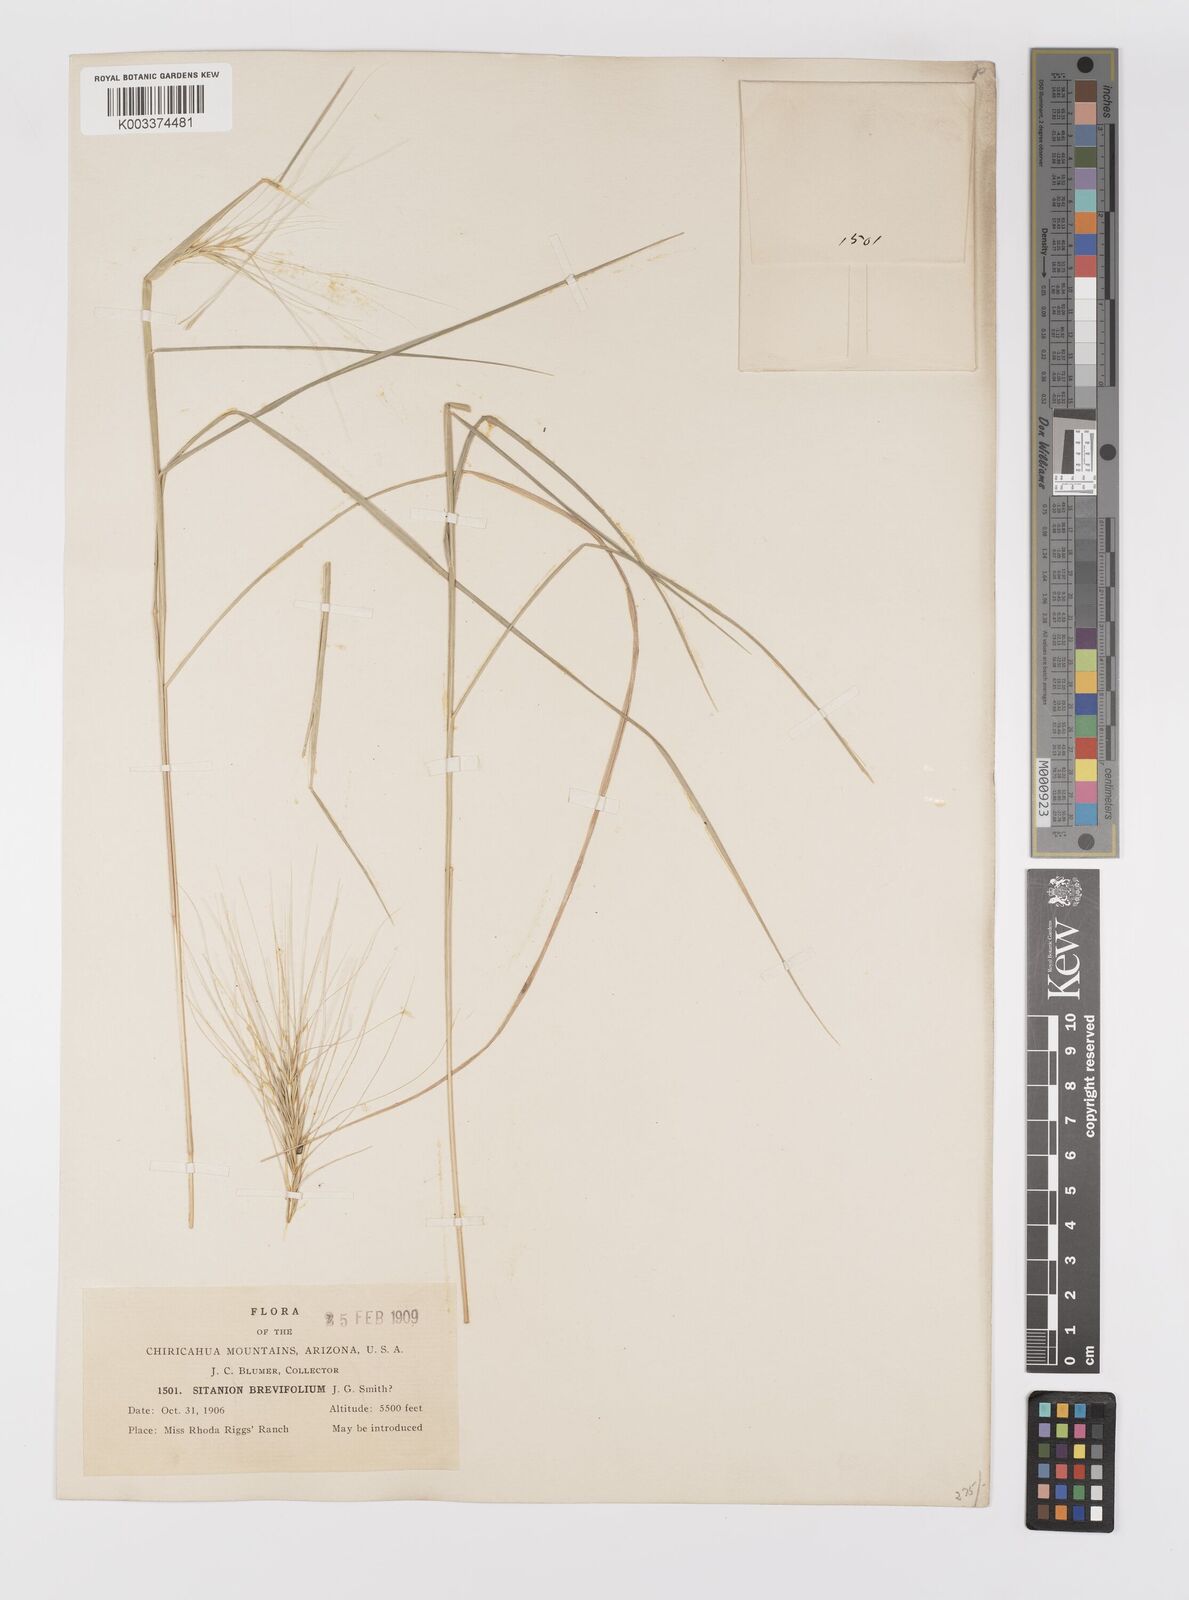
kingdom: Plantae
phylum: Tracheophyta
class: Liliopsida
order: Poales
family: Poaceae
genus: Elymus
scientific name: Elymus elymoides
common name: Bottlebrush squirreltail
